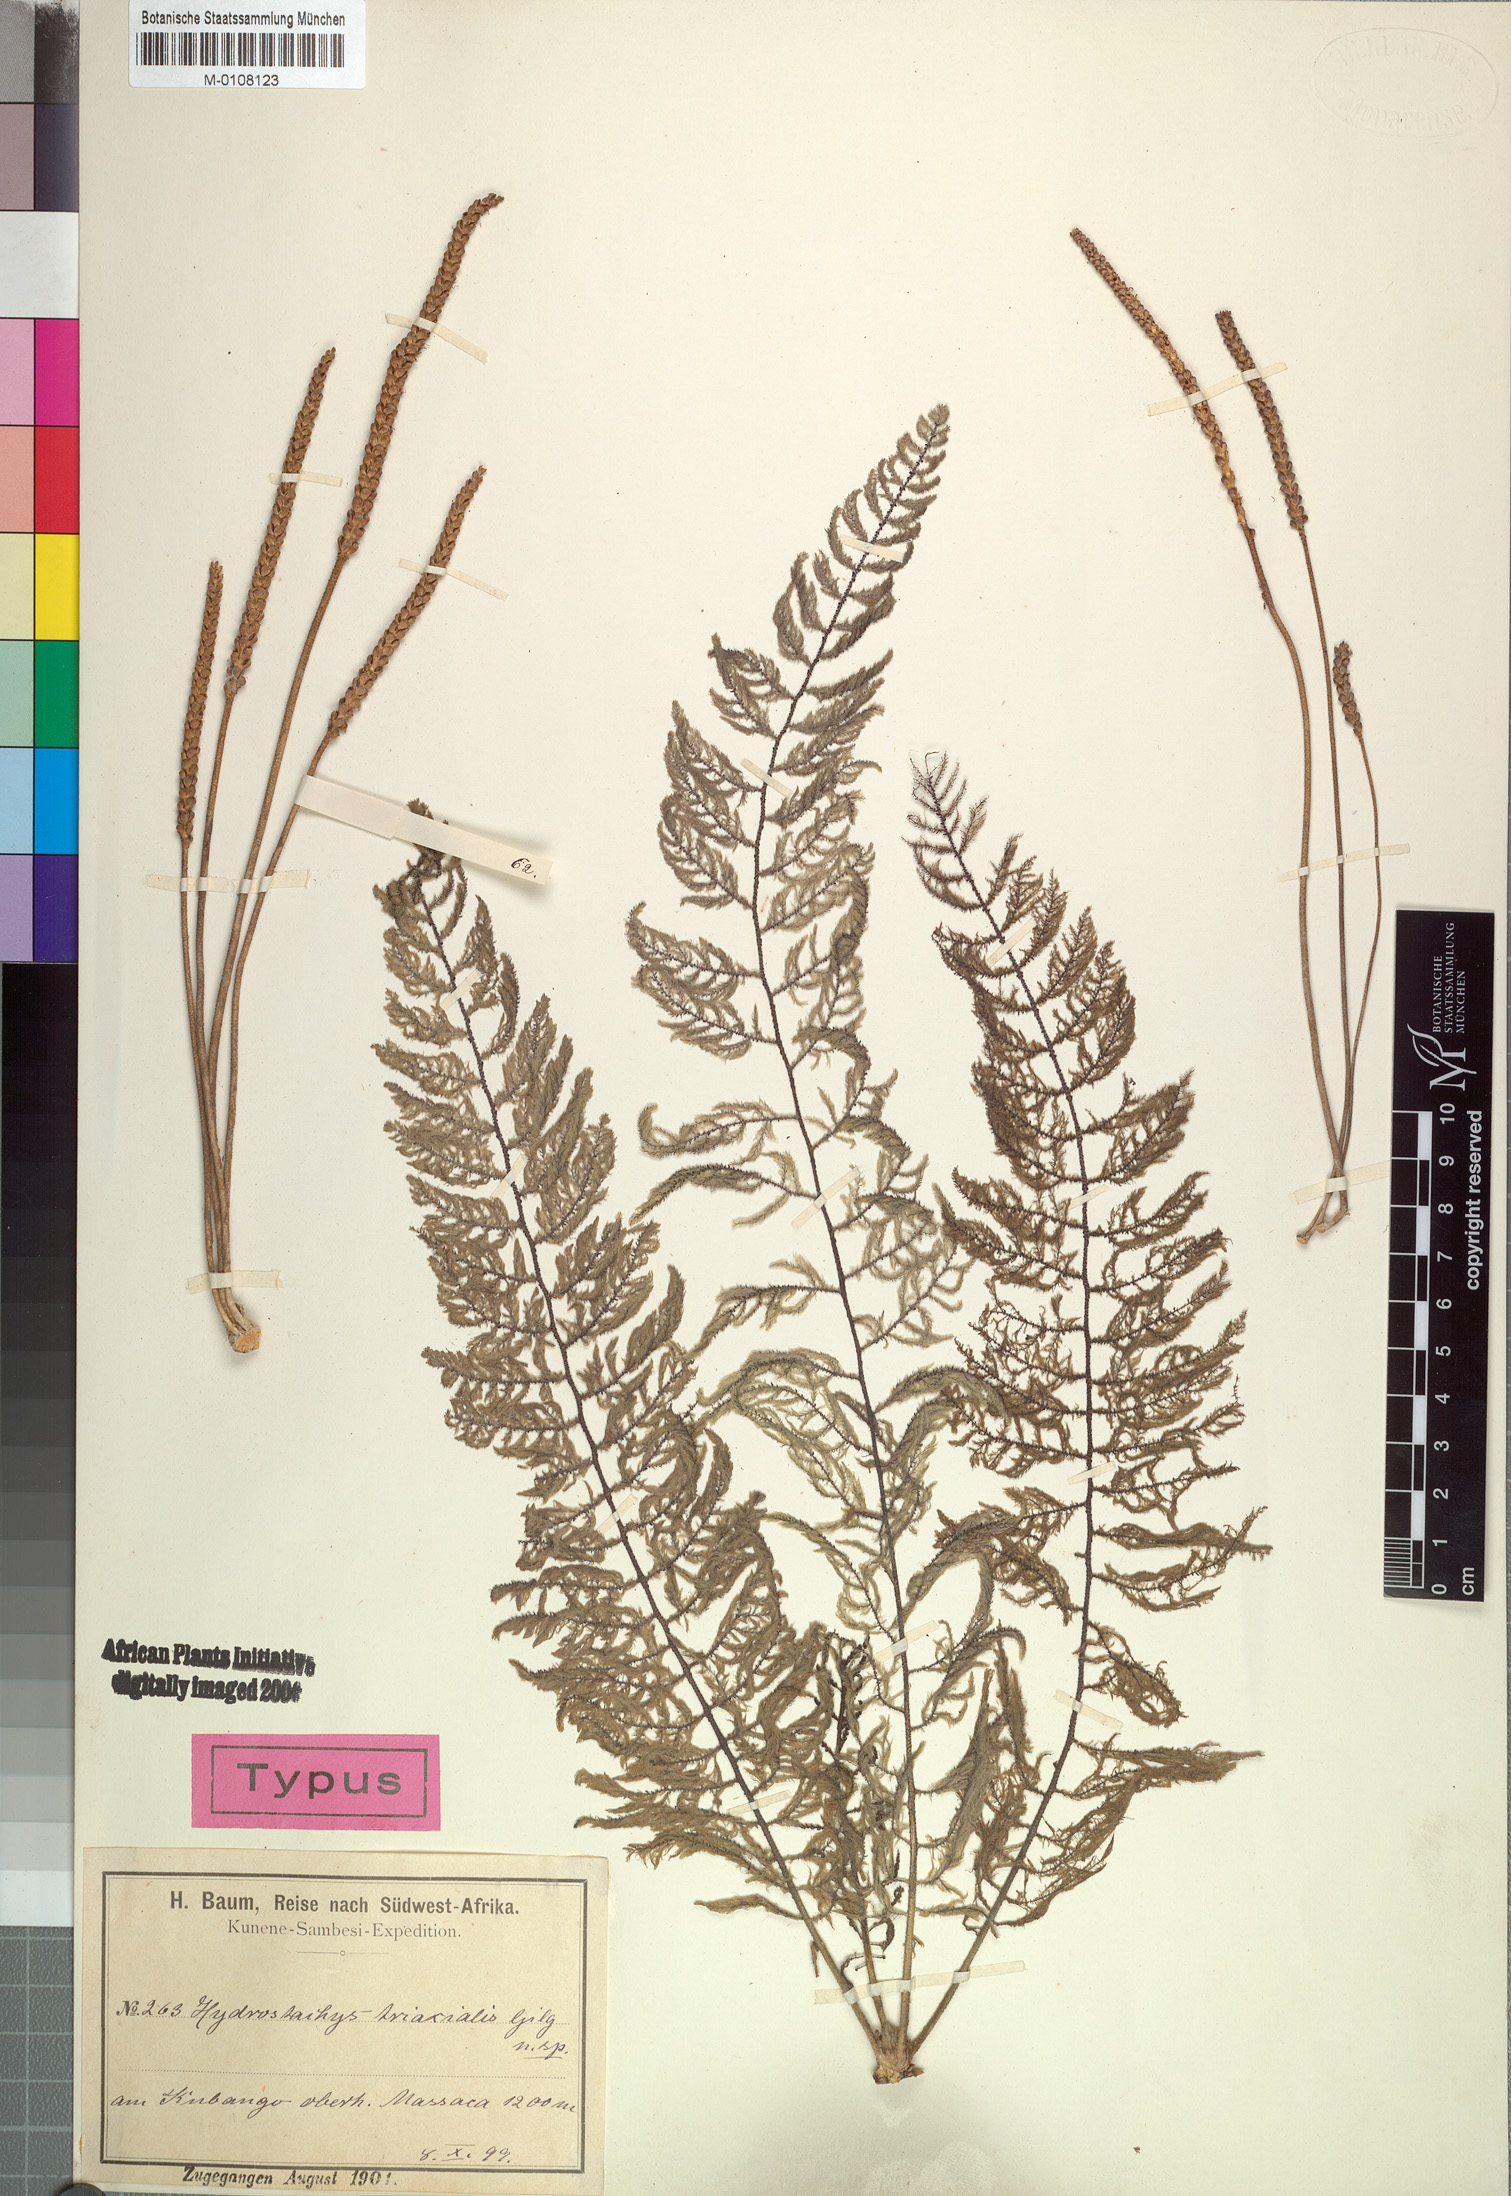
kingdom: Plantae
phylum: Tracheophyta
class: Magnoliopsida
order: Cornales
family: Hydrostachyaceae
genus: Hydrostachys
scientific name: Hydrostachys triaxialis
